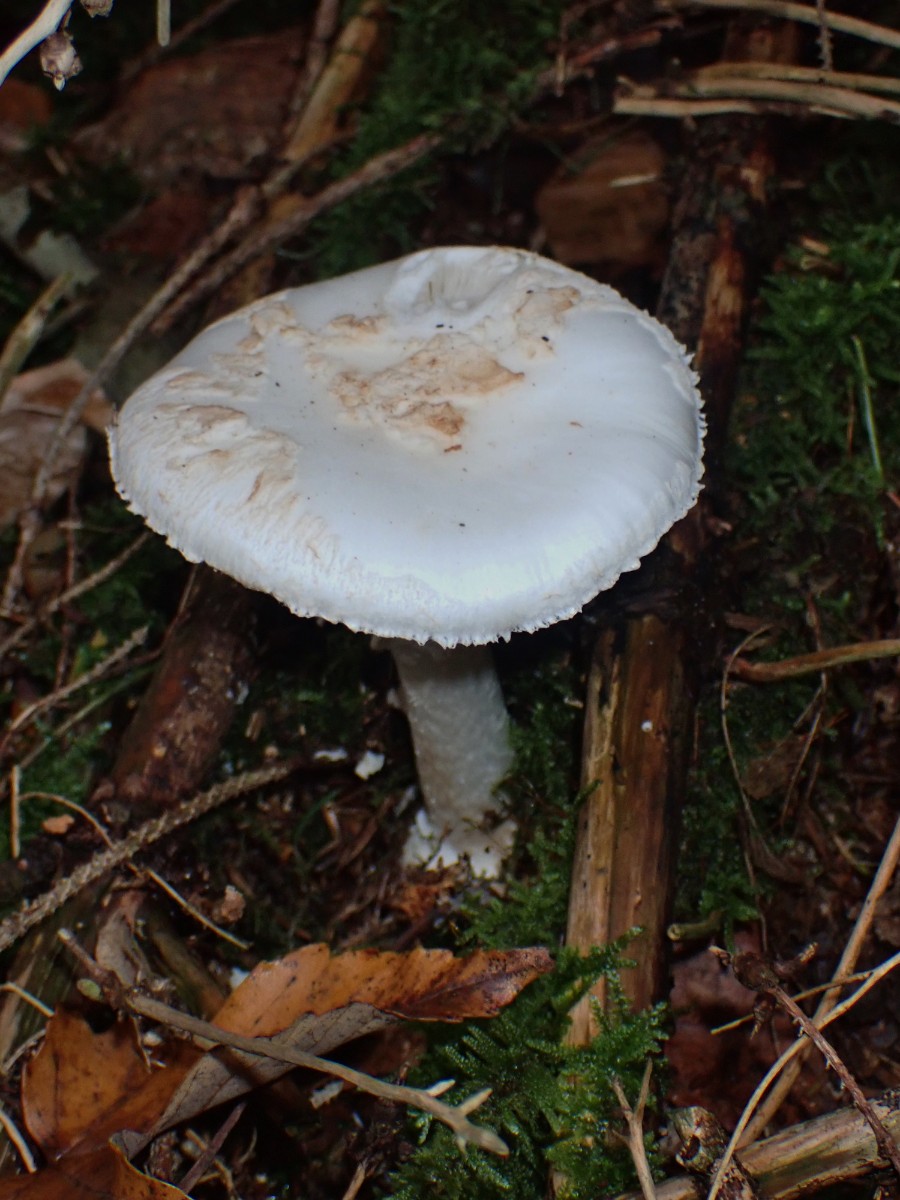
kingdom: Fungi
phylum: Basidiomycota
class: Agaricomycetes
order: Agaricales
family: Amanitaceae
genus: Amanita
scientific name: Amanita citrina
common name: kugleknoldet fluesvamp
